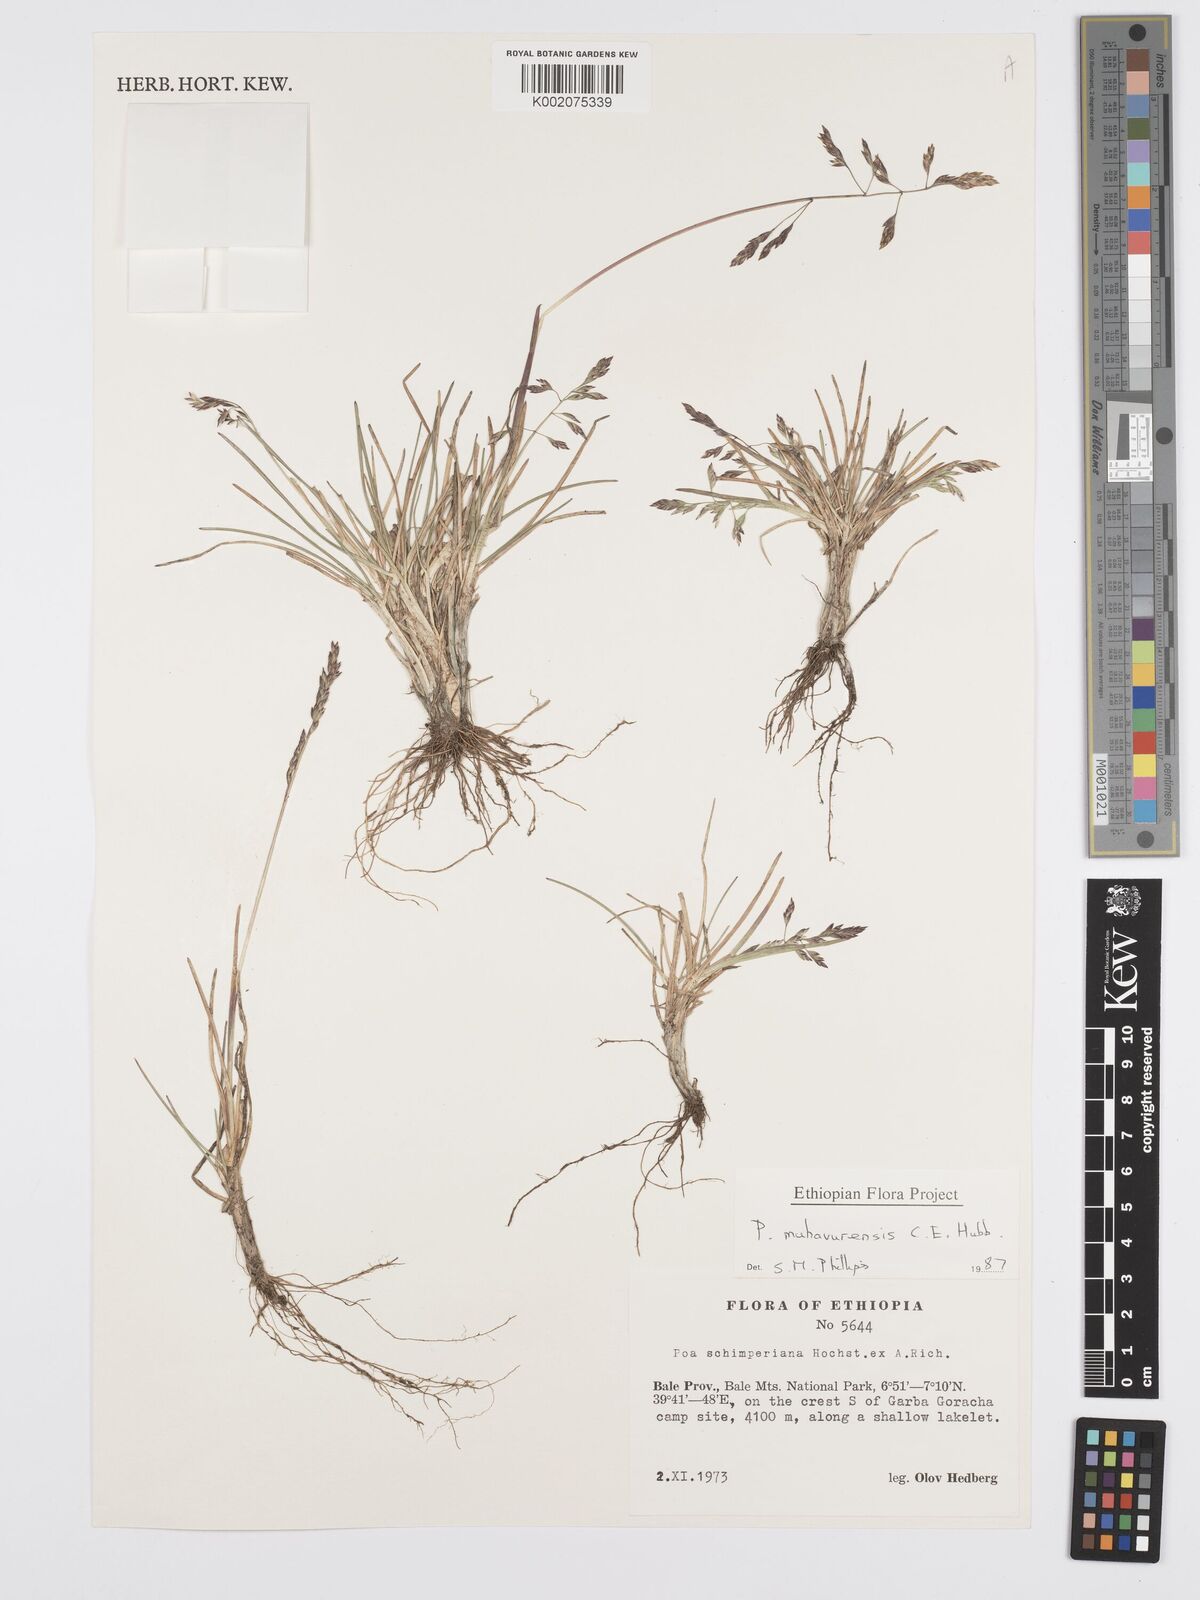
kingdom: Plantae
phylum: Tracheophyta
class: Liliopsida
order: Poales
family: Poaceae
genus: Poa
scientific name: Poa schimperiana
